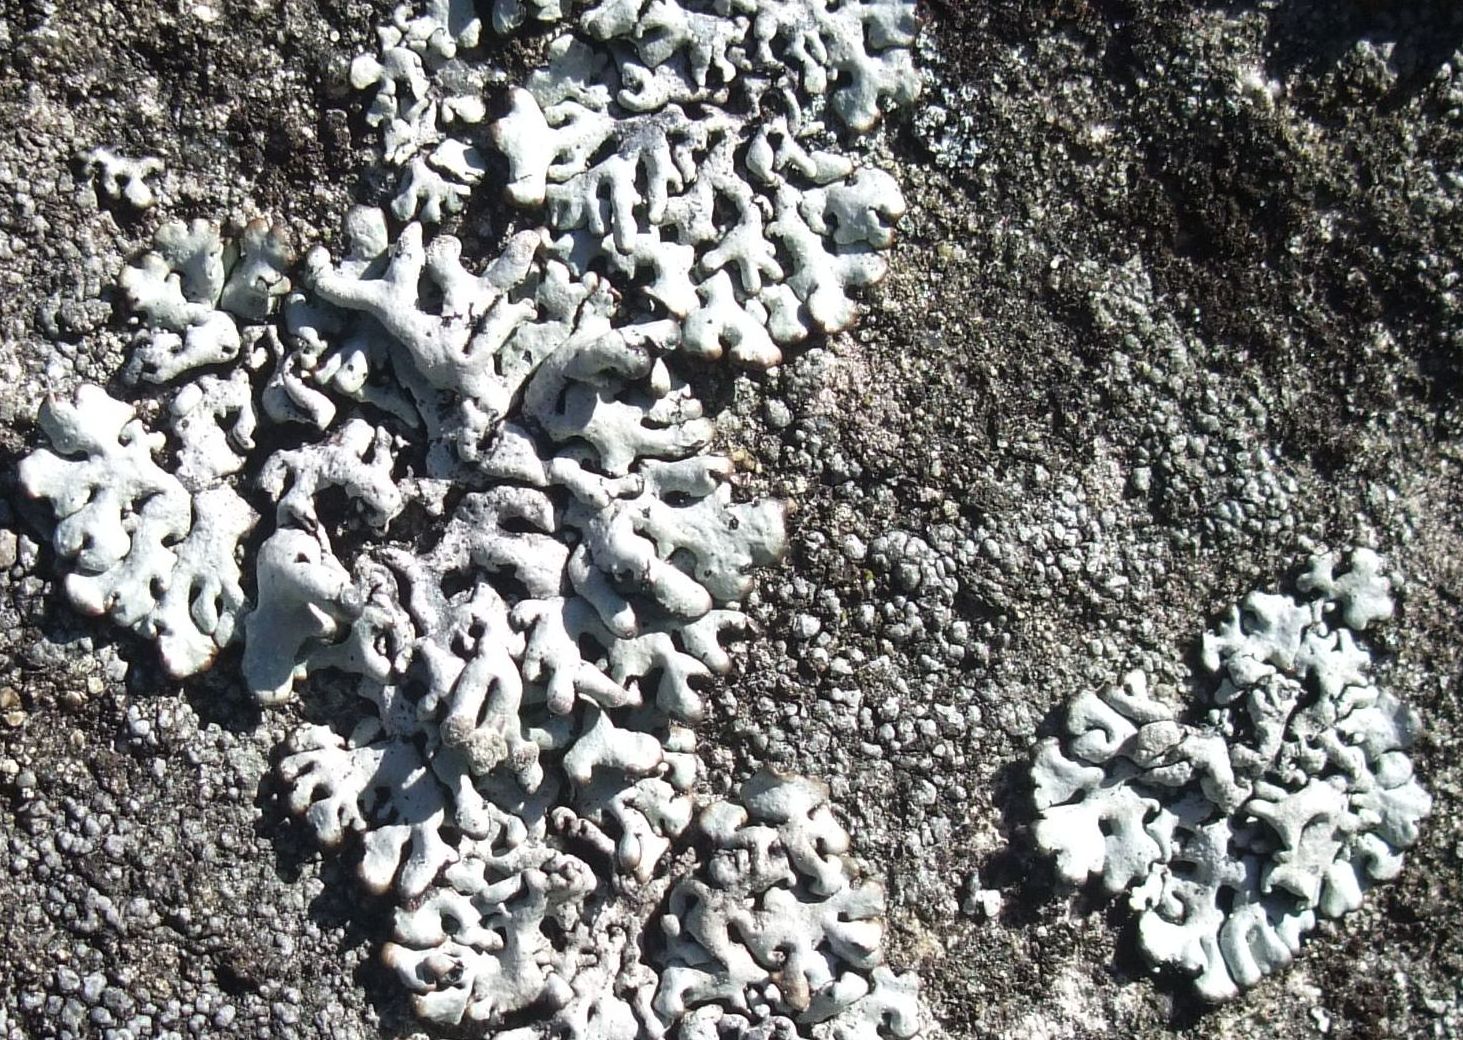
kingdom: Fungi
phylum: Ascomycota
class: Lecanoromycetes
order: Lecanorales
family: Parmeliaceae
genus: Hypogymnia
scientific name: Hypogymnia tubulosa
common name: finger-kvistlav
